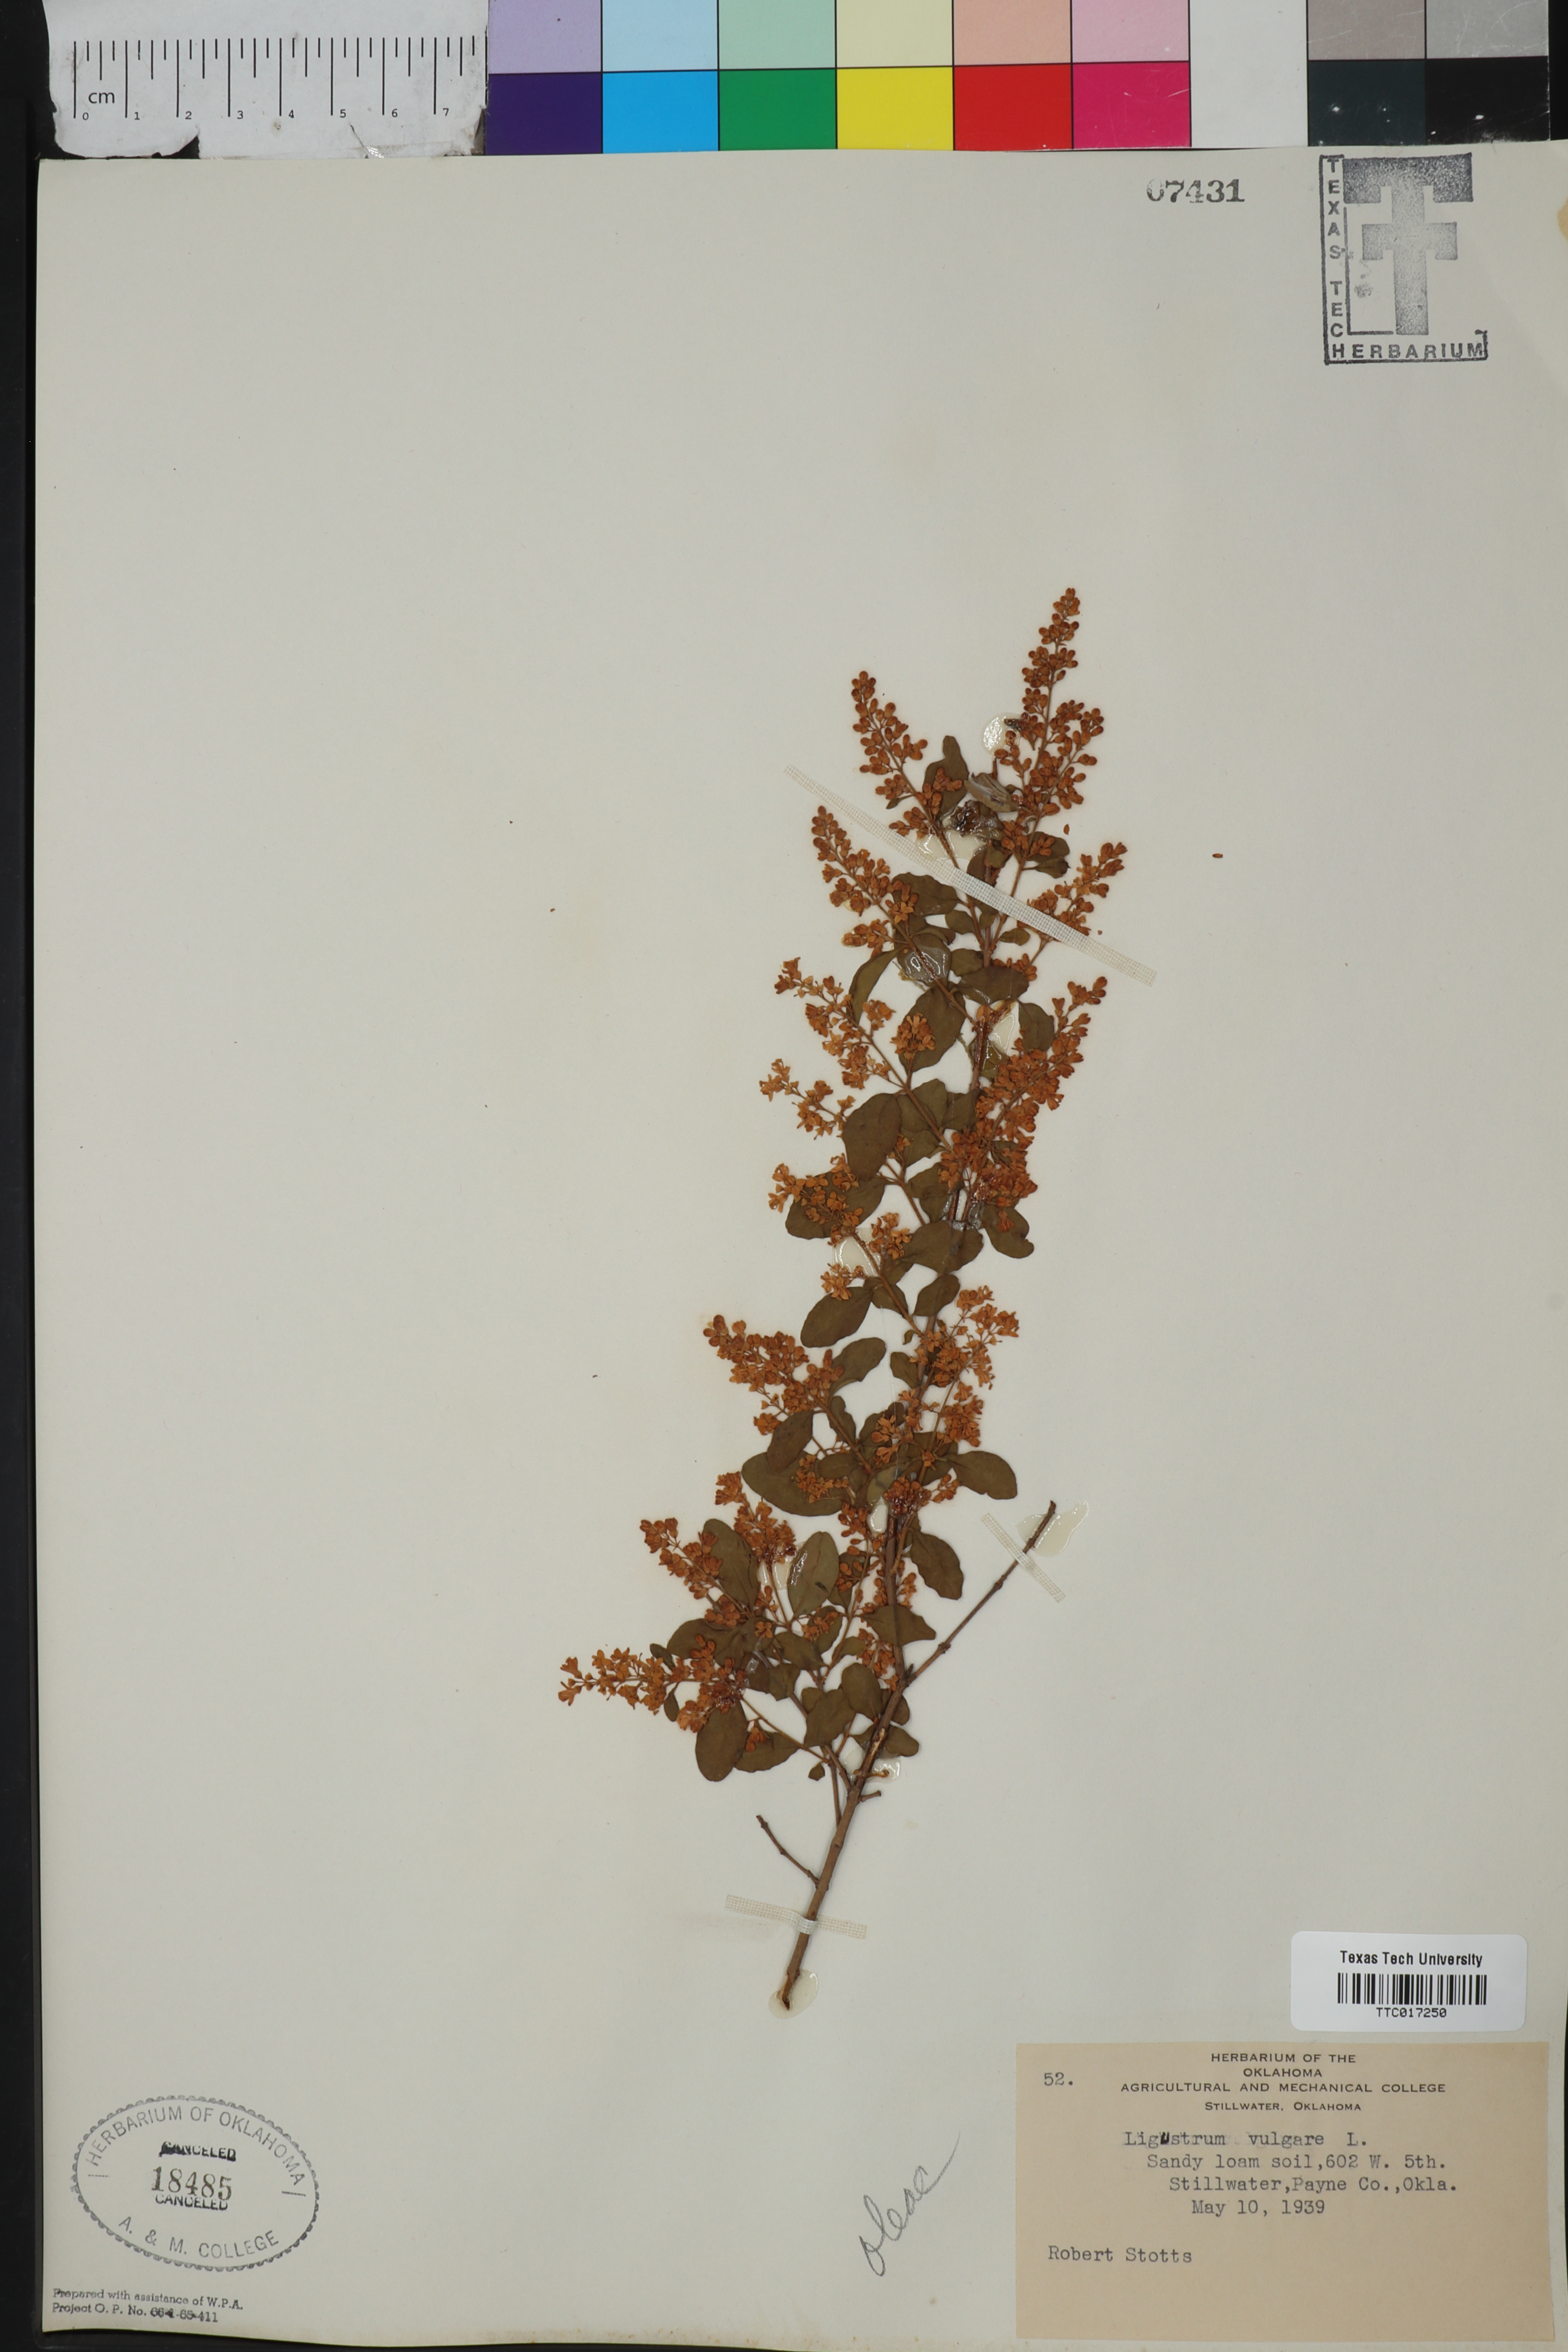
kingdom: Plantae
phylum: Tracheophyta
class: Magnoliopsida
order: Lamiales
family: Oleaceae
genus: Ligustrum
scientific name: Ligustrum vulgare
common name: Wild privet
